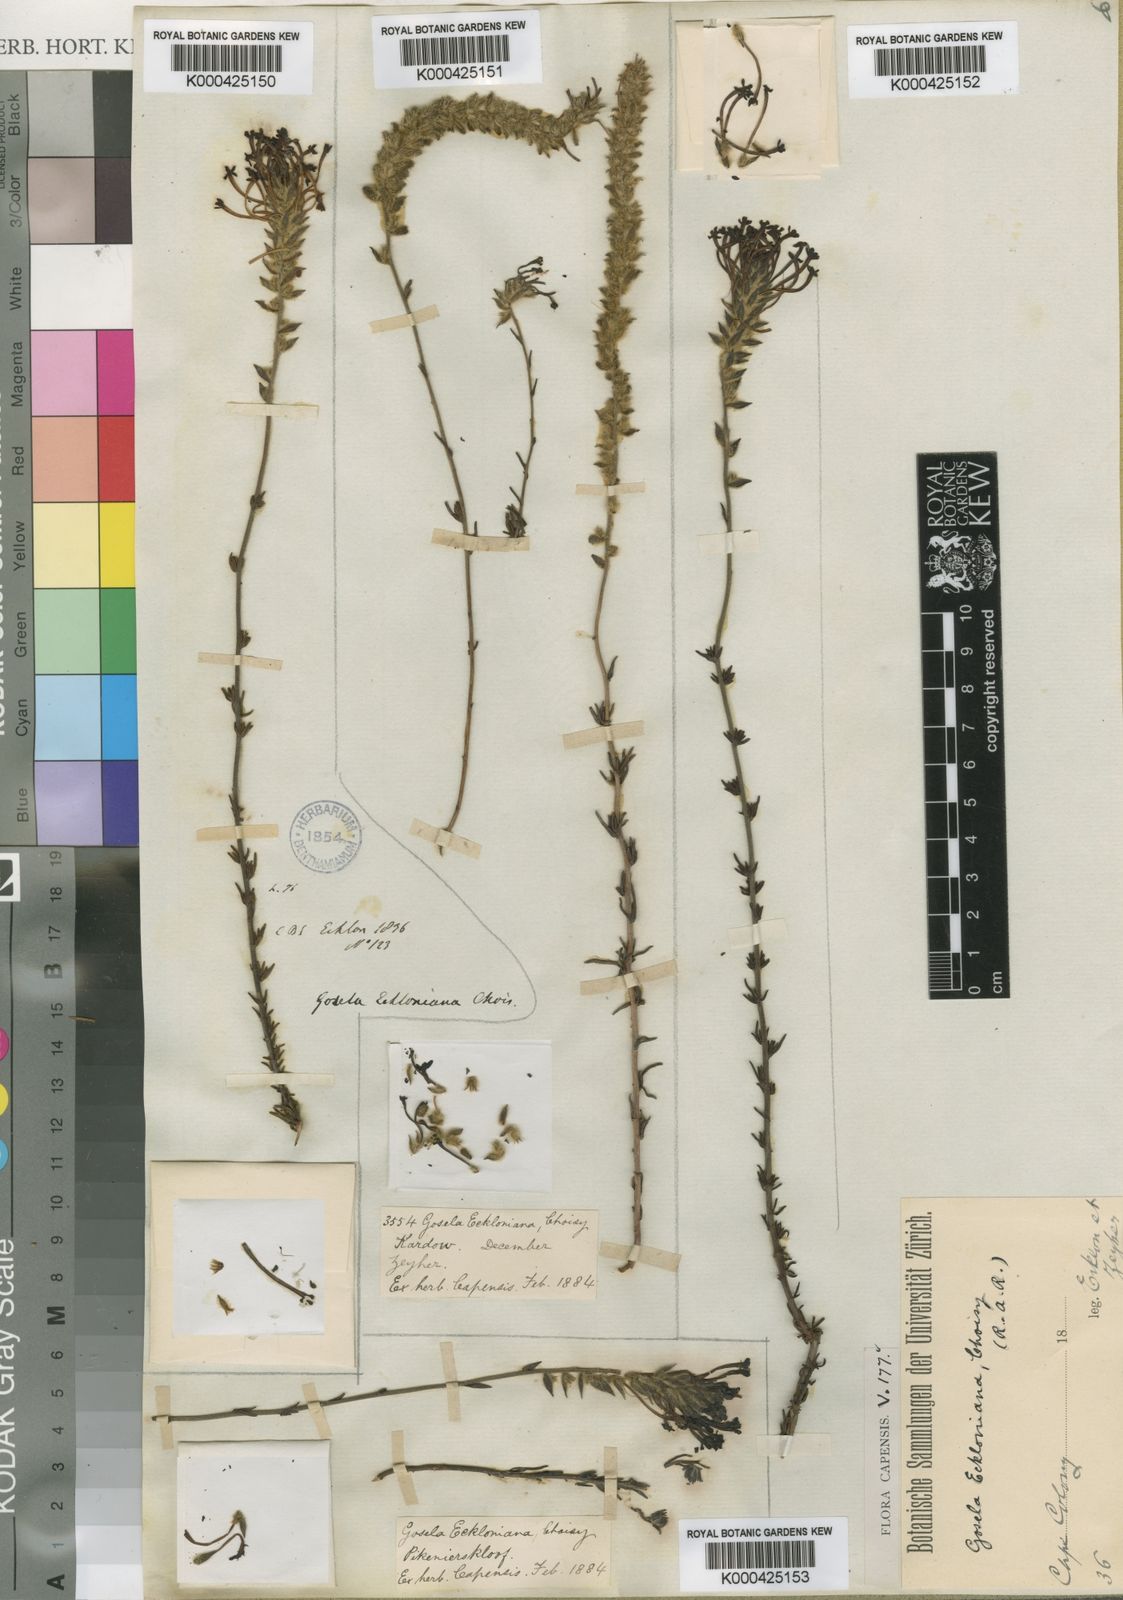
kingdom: Plantae
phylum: Tracheophyta
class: Magnoliopsida
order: Lamiales
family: Scrophulariaceae
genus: Gosela
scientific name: Gosela eckloniana
